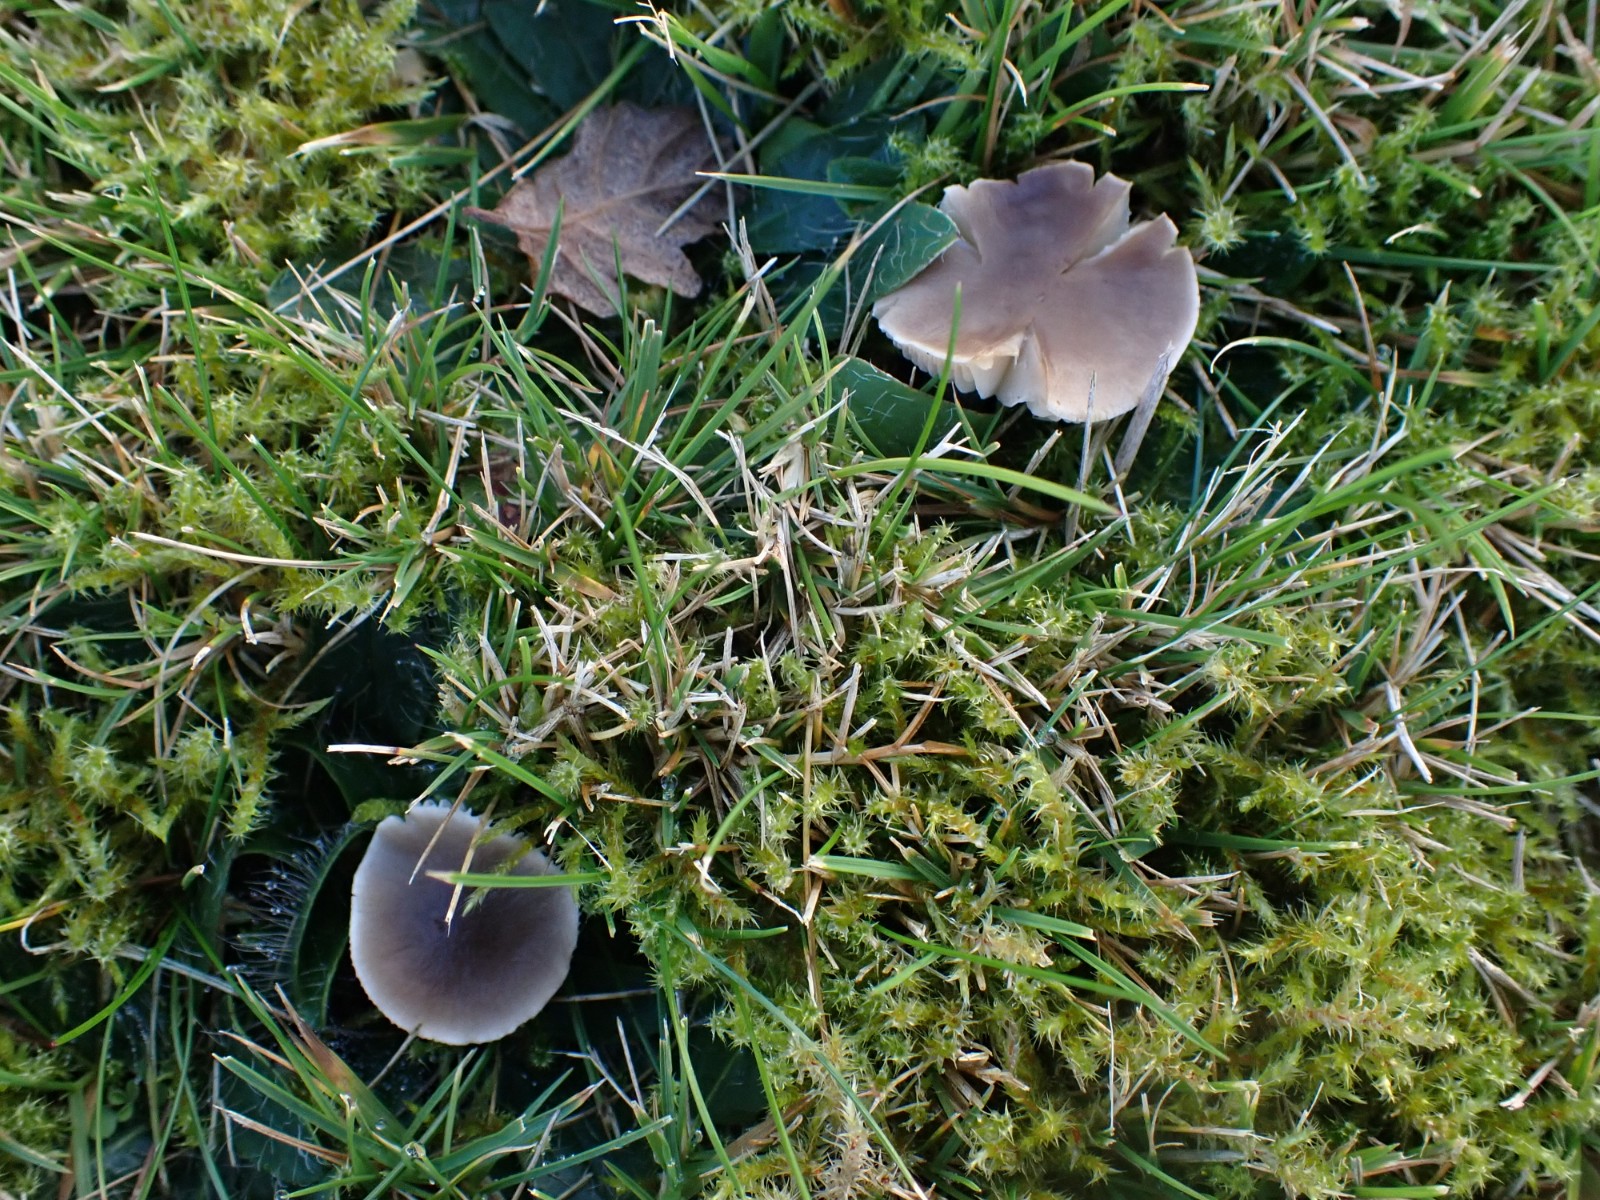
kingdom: Fungi
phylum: Basidiomycota
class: Agaricomycetes
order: Agaricales
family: Tricholomataceae
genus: Dermoloma
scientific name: Dermoloma cuneifolium
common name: eng-nonnehat
